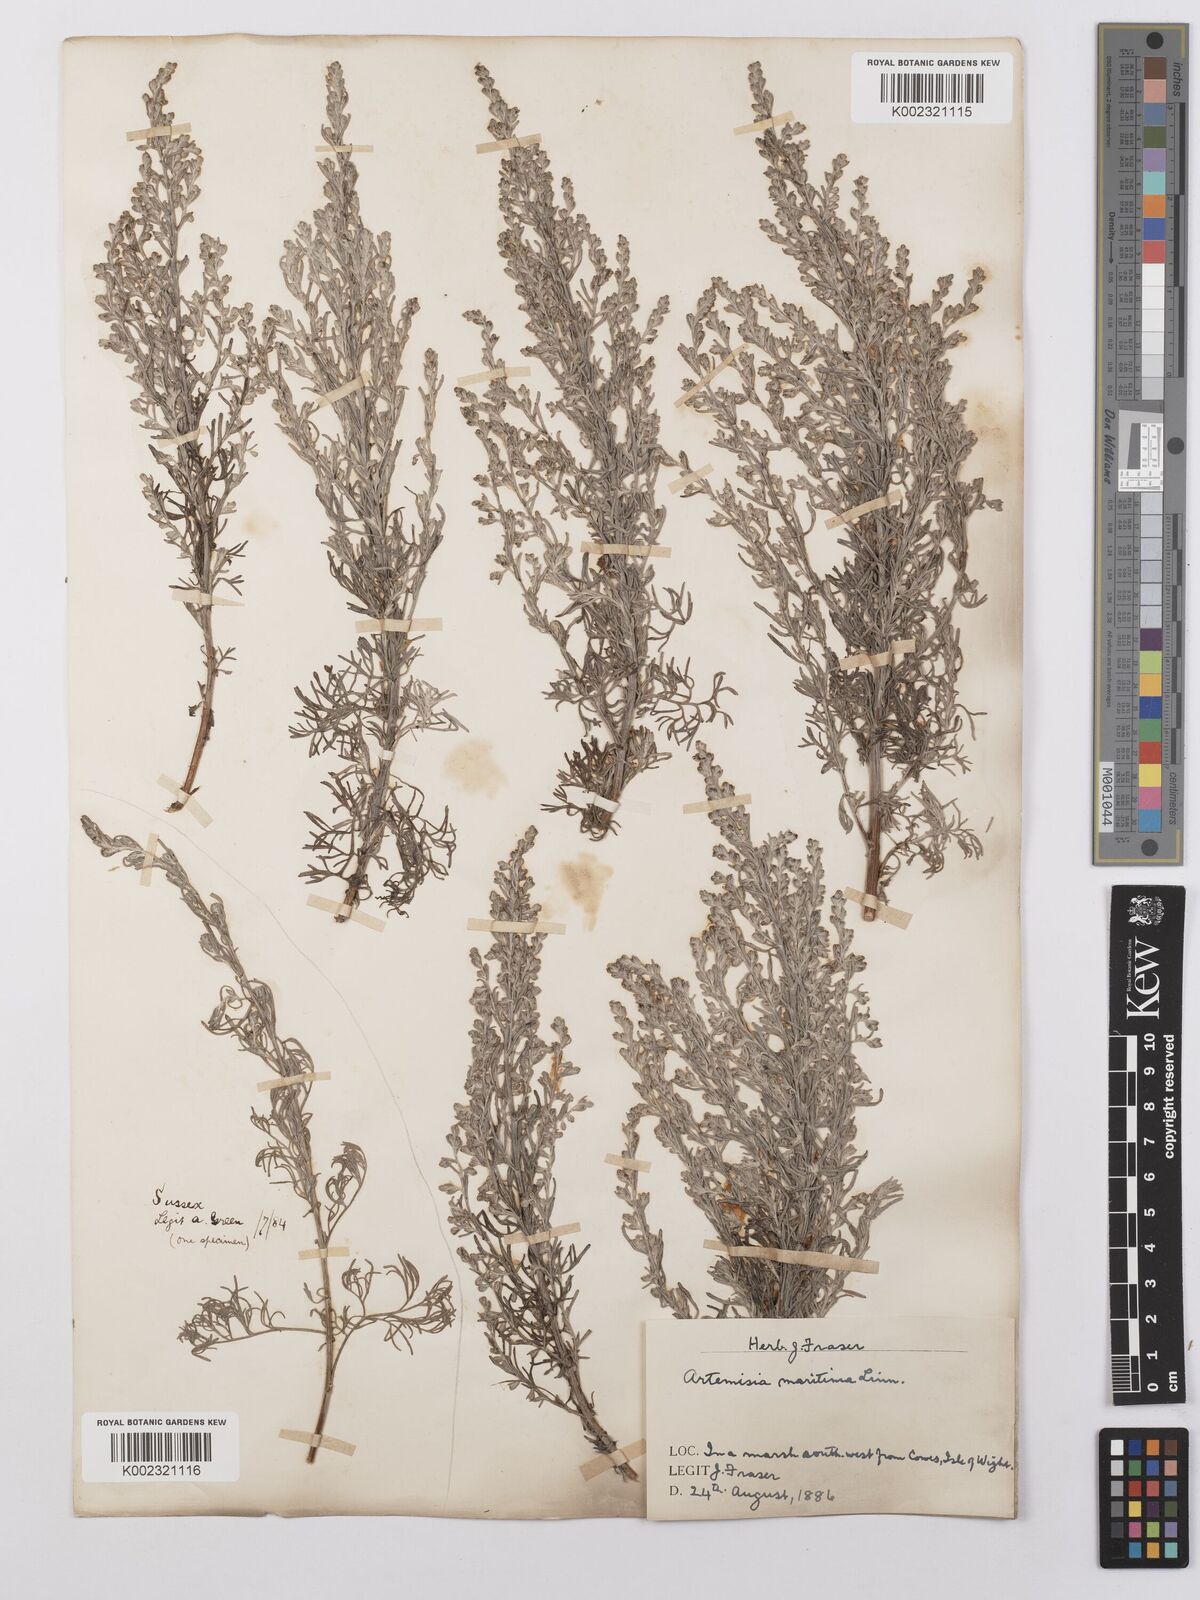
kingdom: Plantae
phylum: Tracheophyta
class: Magnoliopsida
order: Asterales
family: Asteraceae
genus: Artemisia
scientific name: Artemisia maritima
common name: Wormseed
